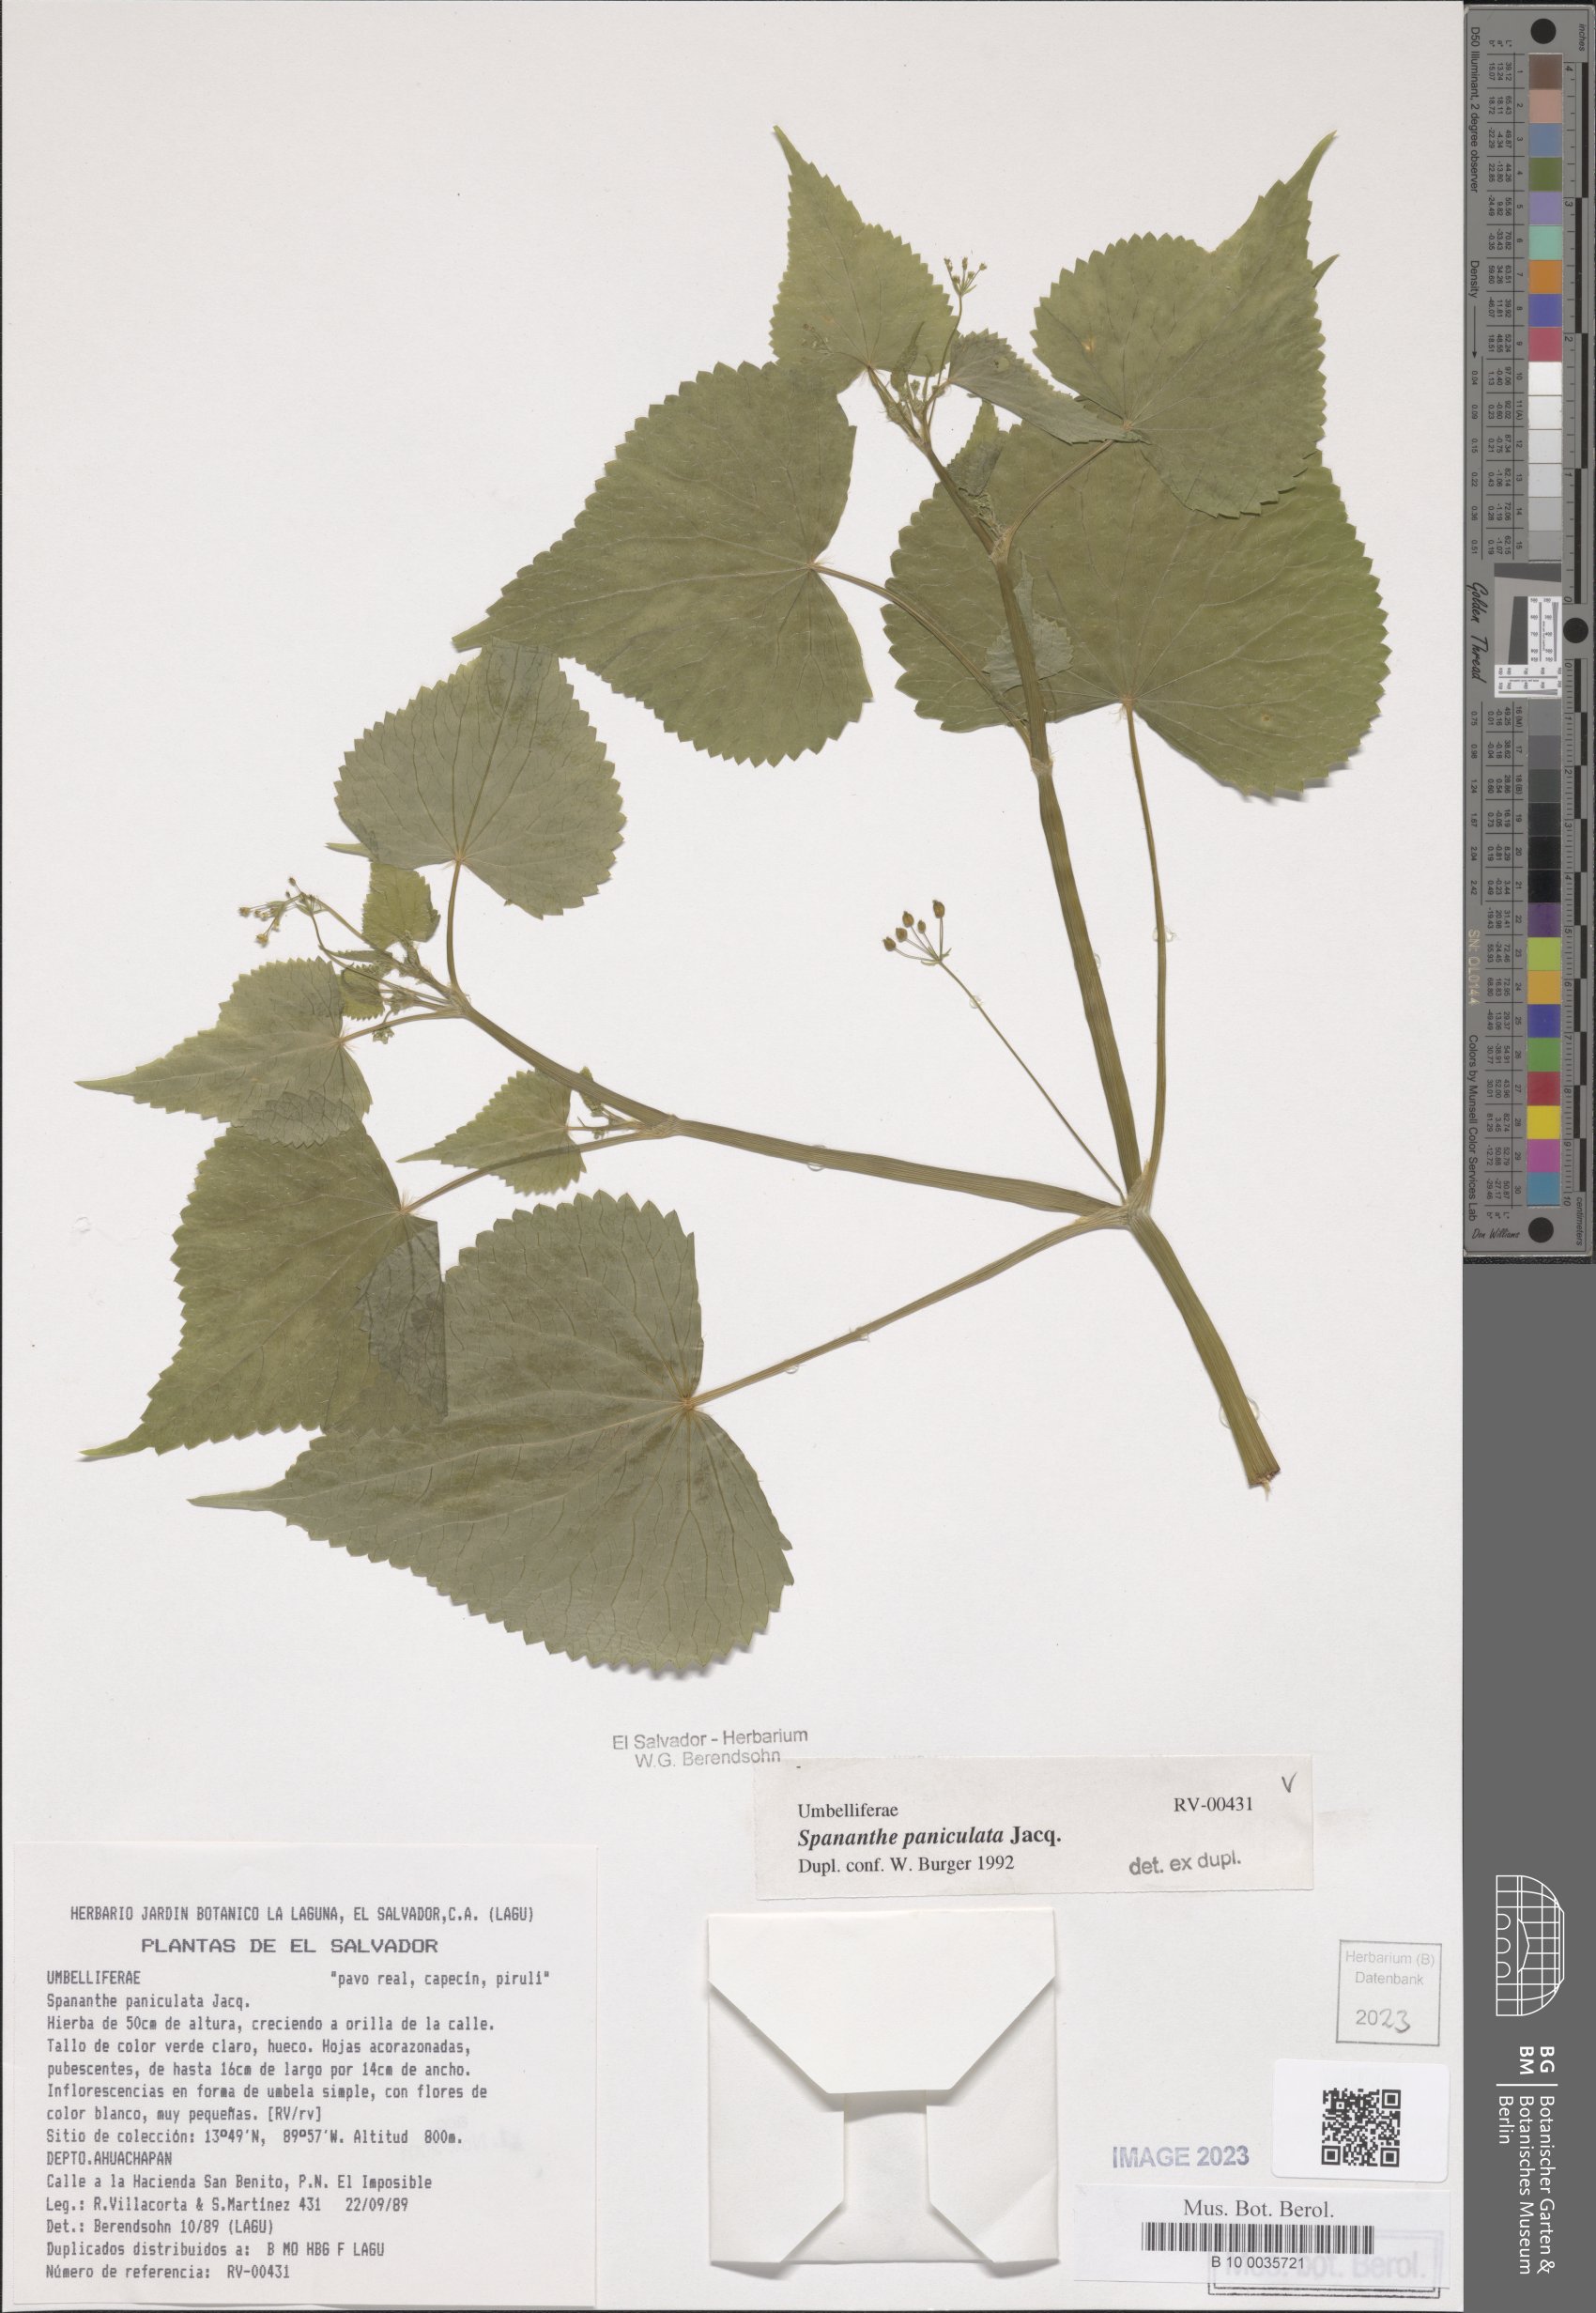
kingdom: Plantae
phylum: Tracheophyta
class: Magnoliopsida
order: Apiales
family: Apiaceae
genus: Spananthe
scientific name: Spananthe paniculata
